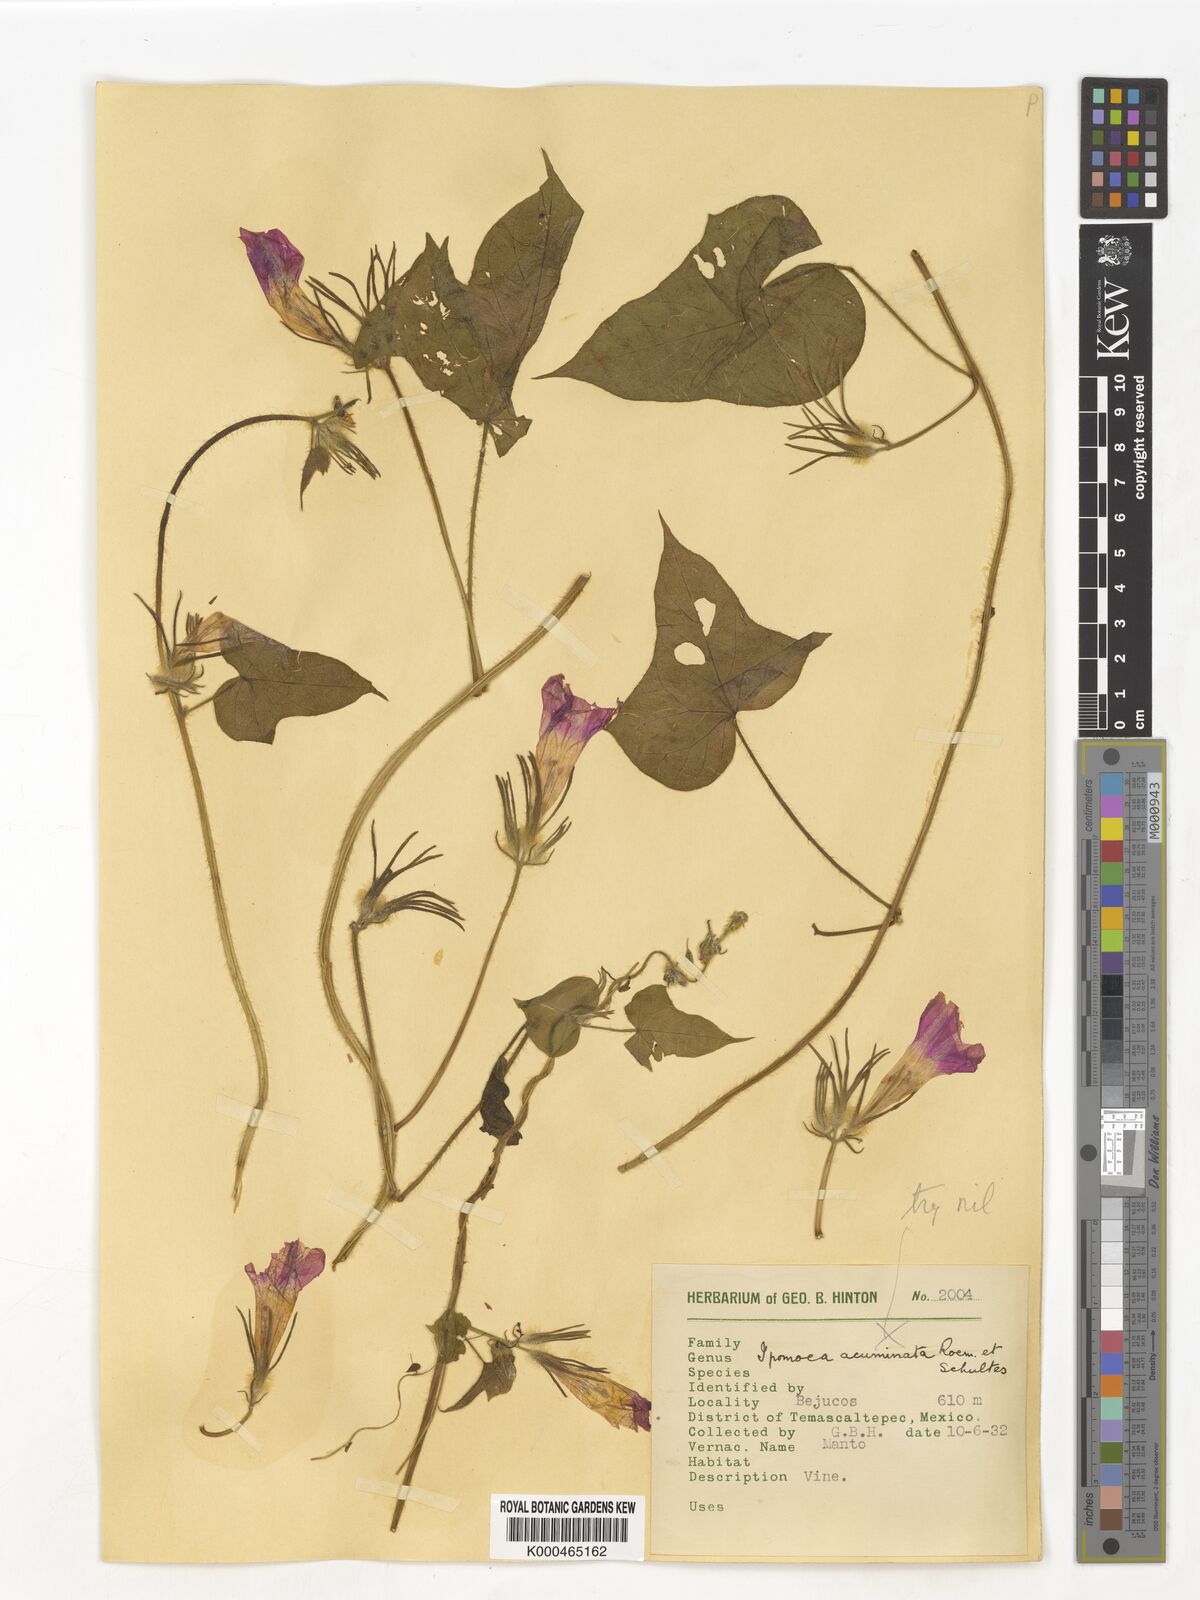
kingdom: Plantae
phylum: Tracheophyta
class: Magnoliopsida
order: Solanales
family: Convolvulaceae
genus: Ipomoea
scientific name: Ipomoea
